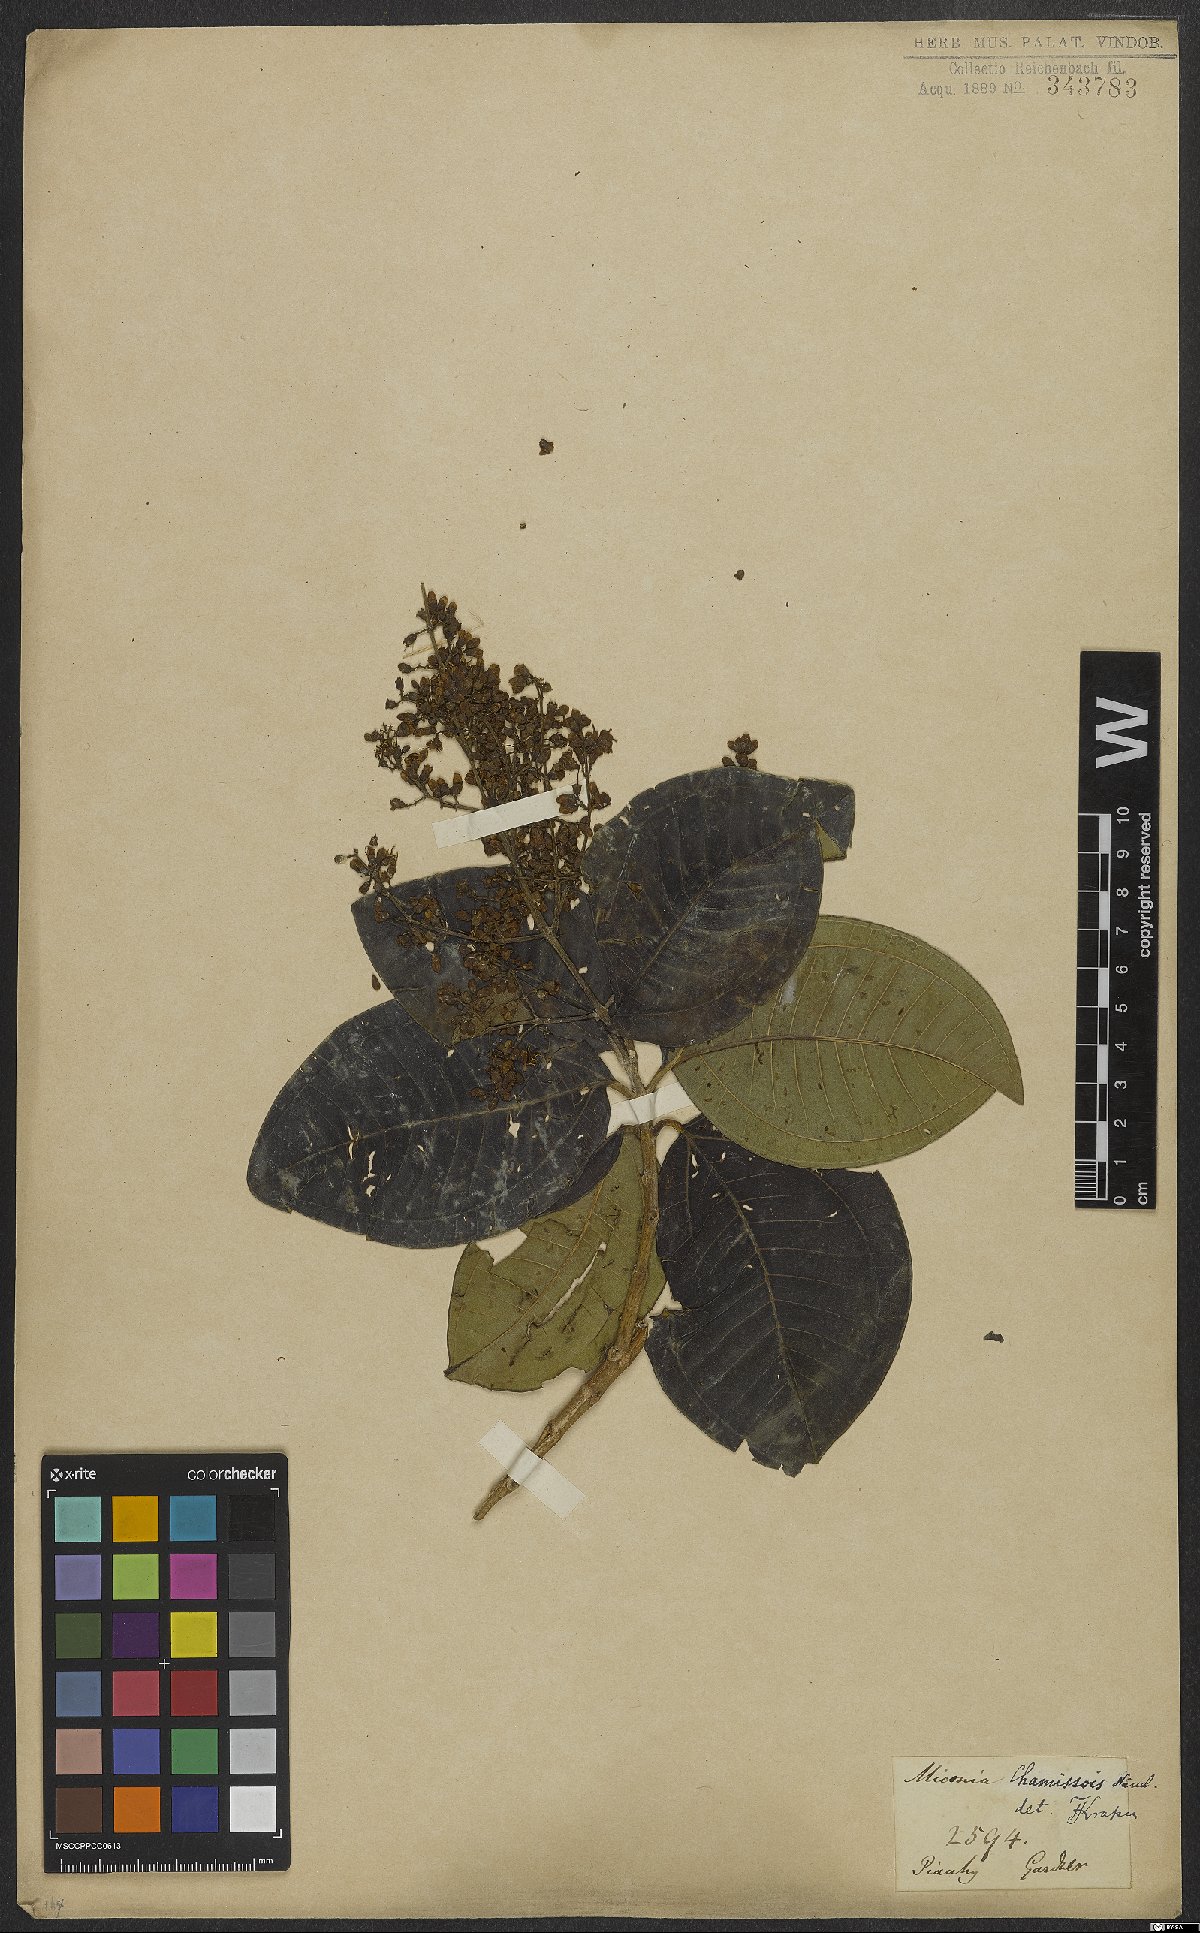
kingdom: Plantae
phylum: Tracheophyta
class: Magnoliopsida
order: Myrtales
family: Melastomataceae
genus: Miconia
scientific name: Miconia chamissois
